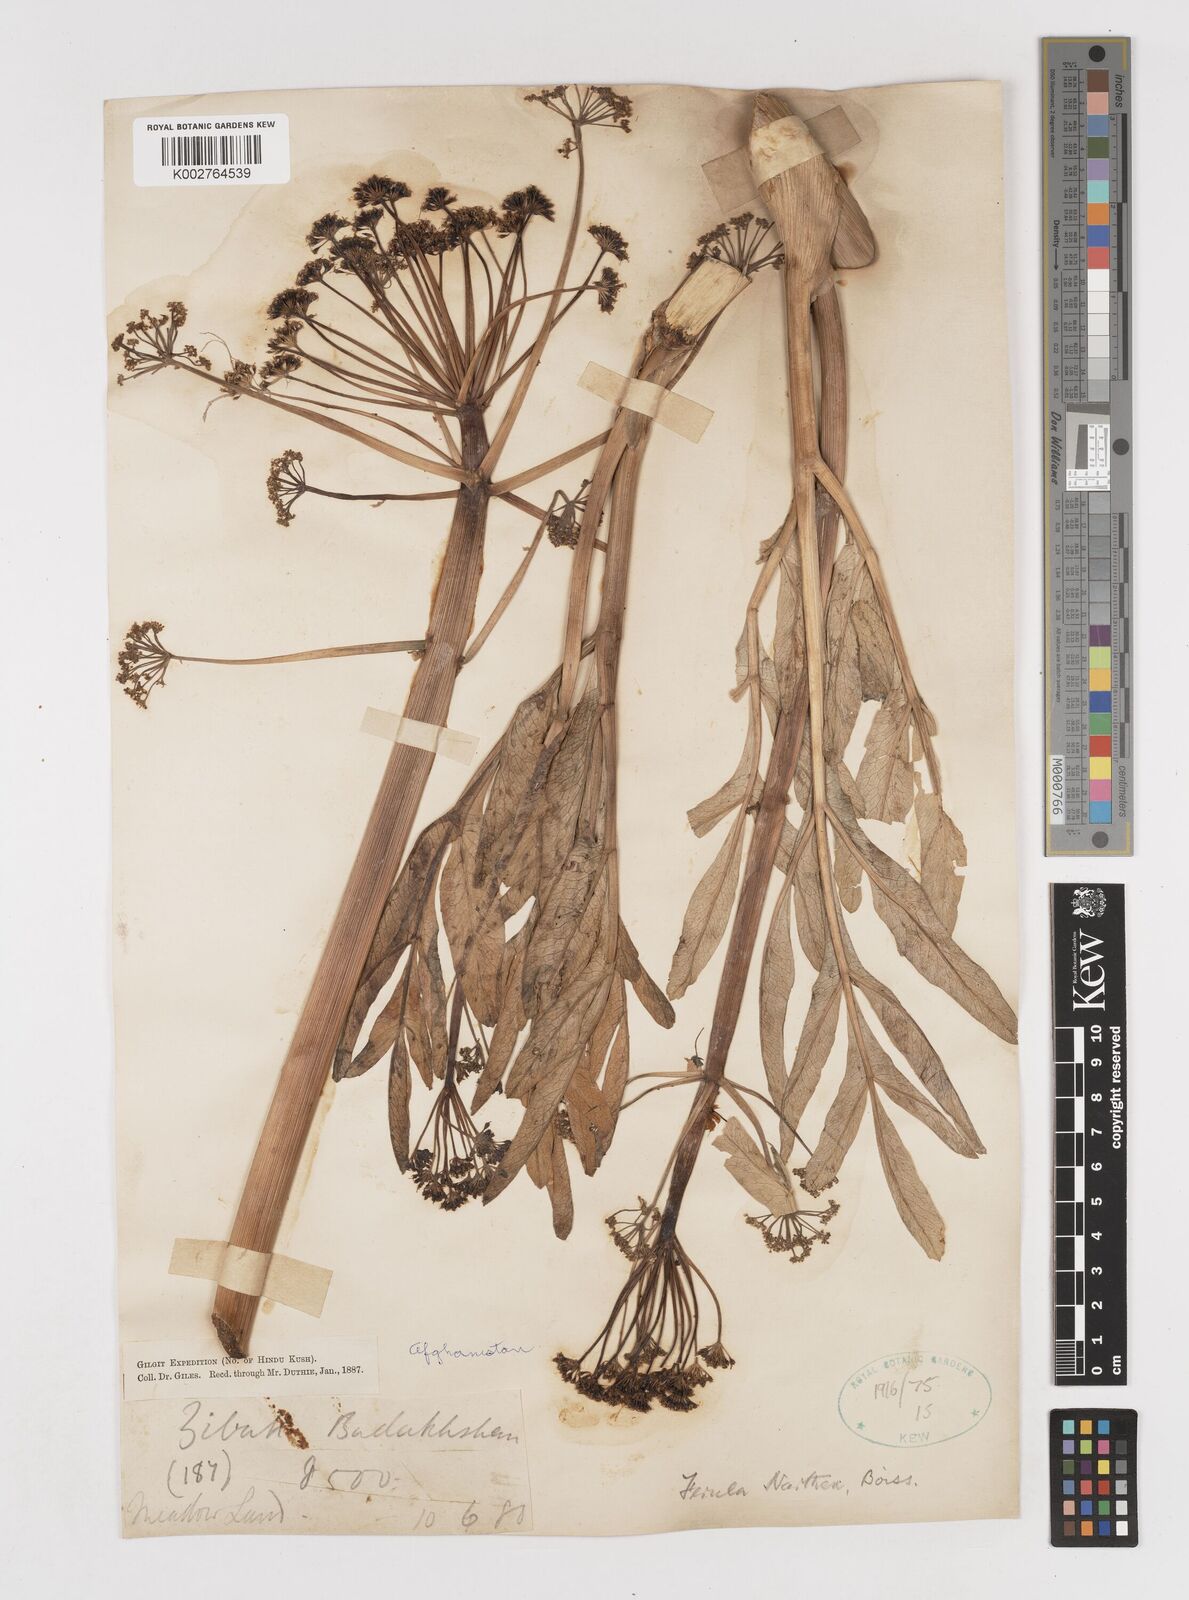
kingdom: Plantae
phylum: Tracheophyta
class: Magnoliopsida
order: Apiales
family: Apiaceae
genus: Ferula
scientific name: Ferula narthex
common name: Hing asafetida
